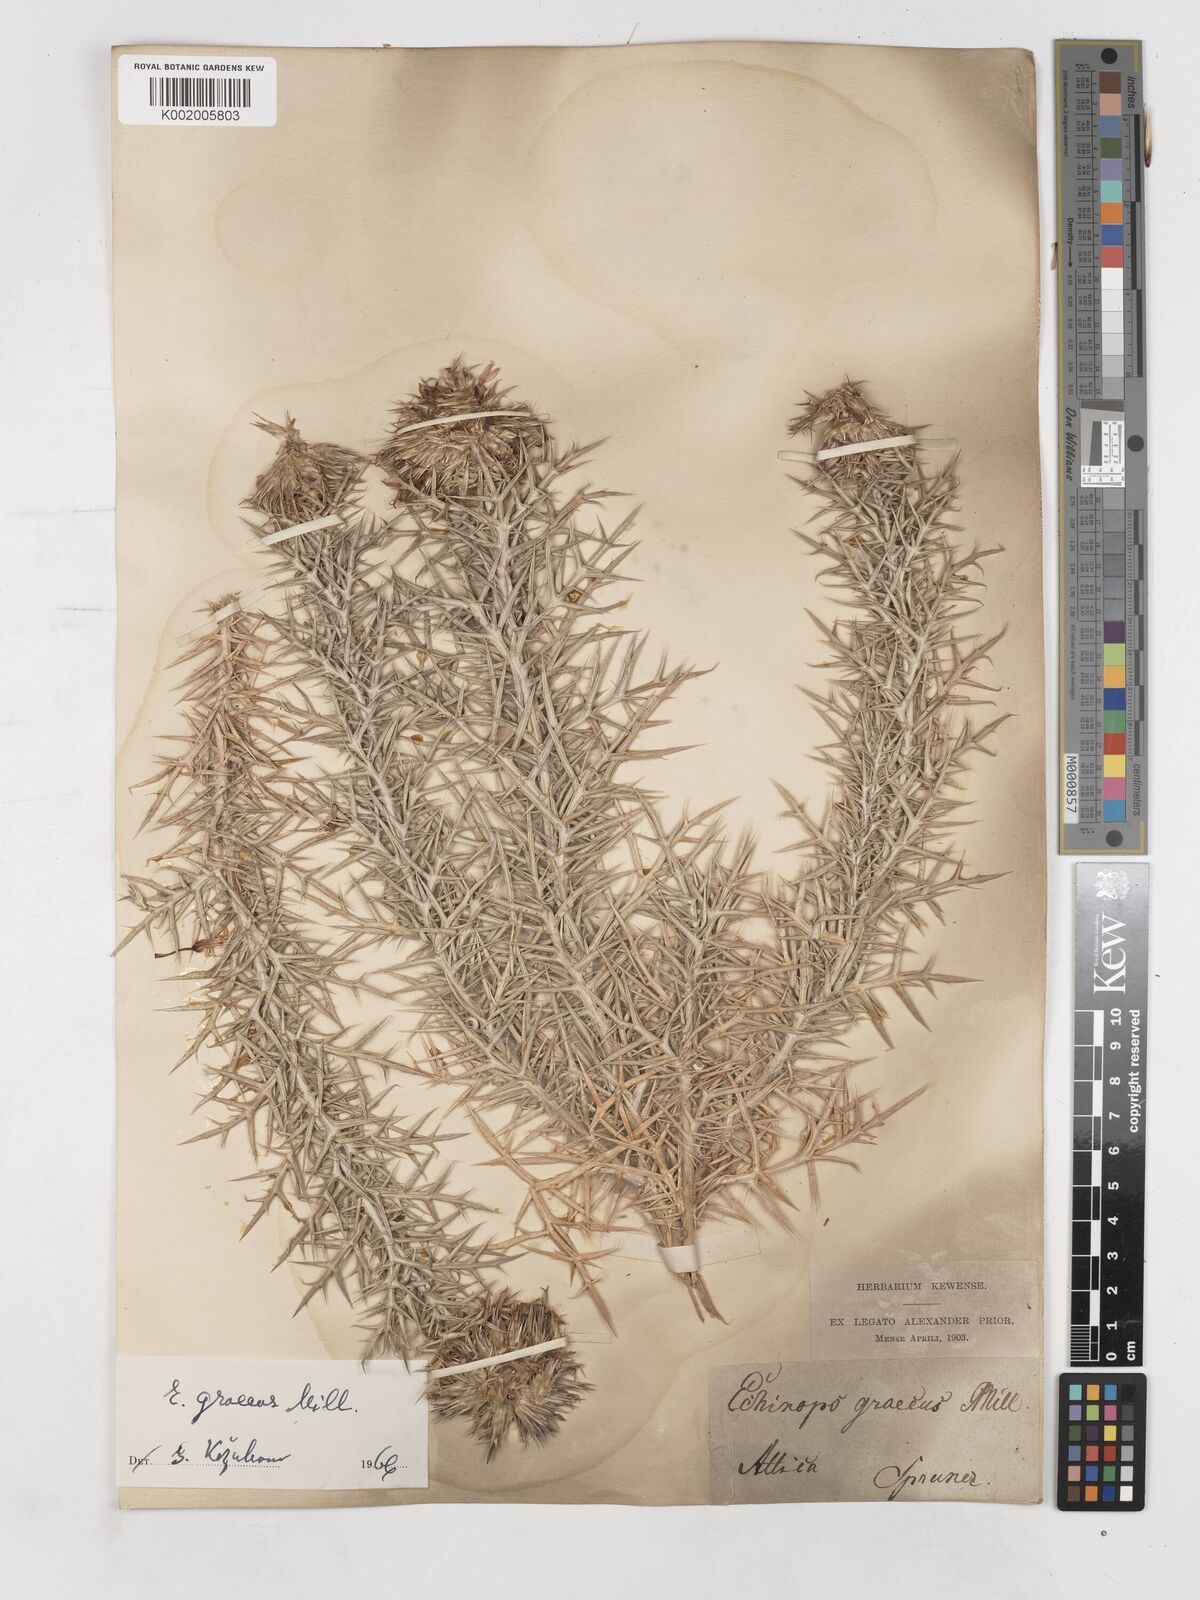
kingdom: Plantae
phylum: Tracheophyta
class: Magnoliopsida
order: Asterales
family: Asteraceae
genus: Echinops
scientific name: Echinops graecus
